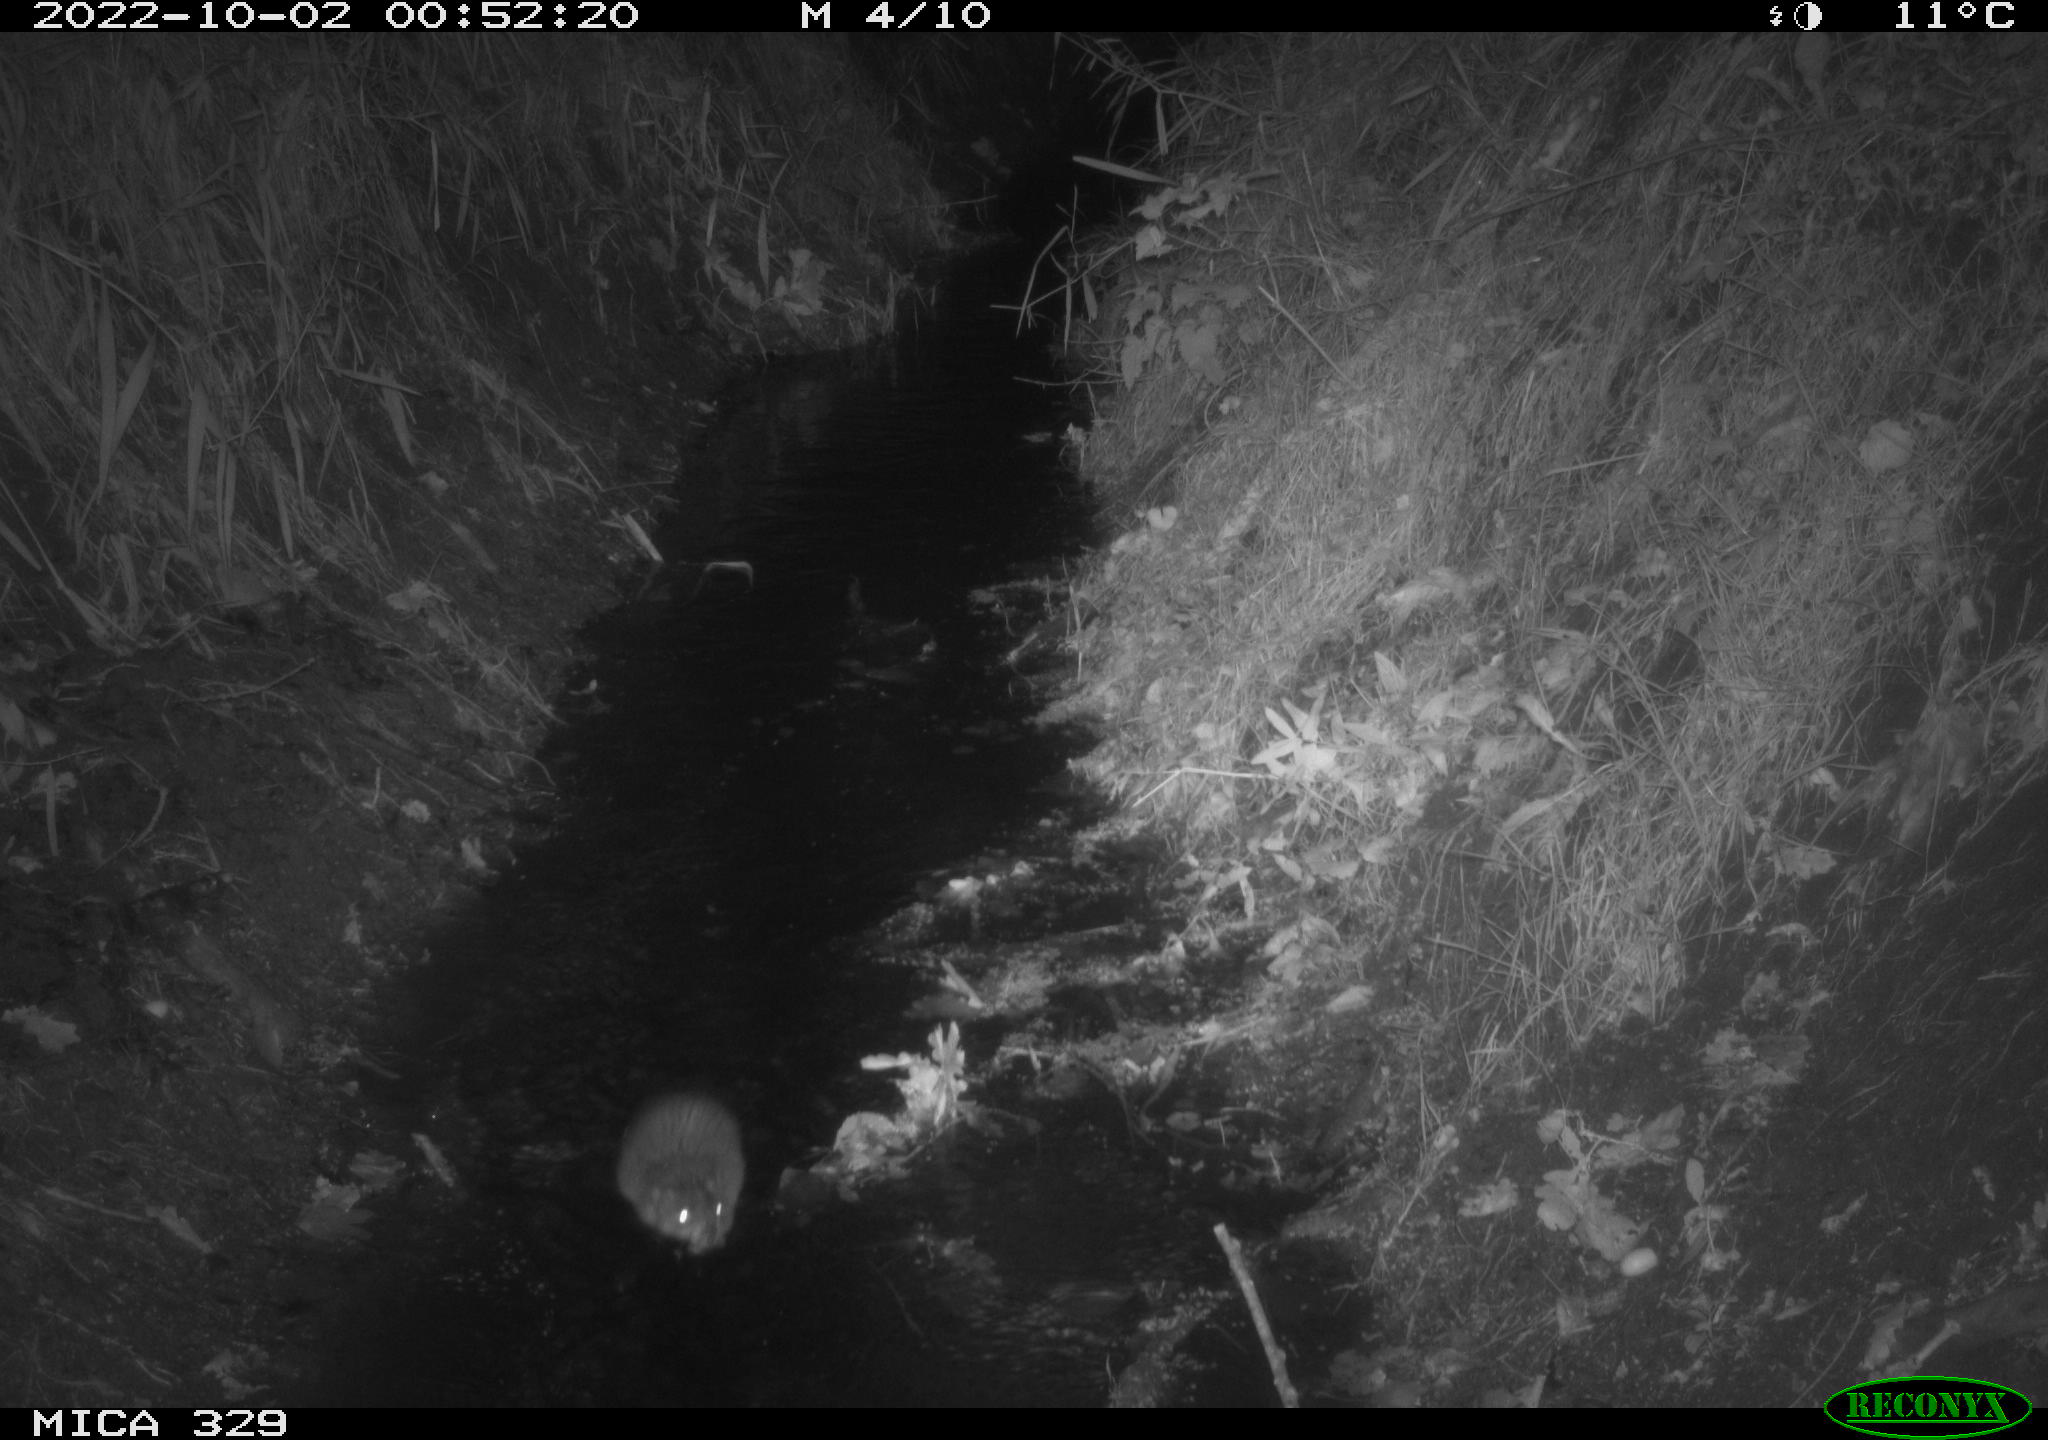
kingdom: Animalia
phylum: Chordata
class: Mammalia
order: Rodentia
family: Cricetidae
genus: Ondatra
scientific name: Ondatra zibethicus
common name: Muskrat
